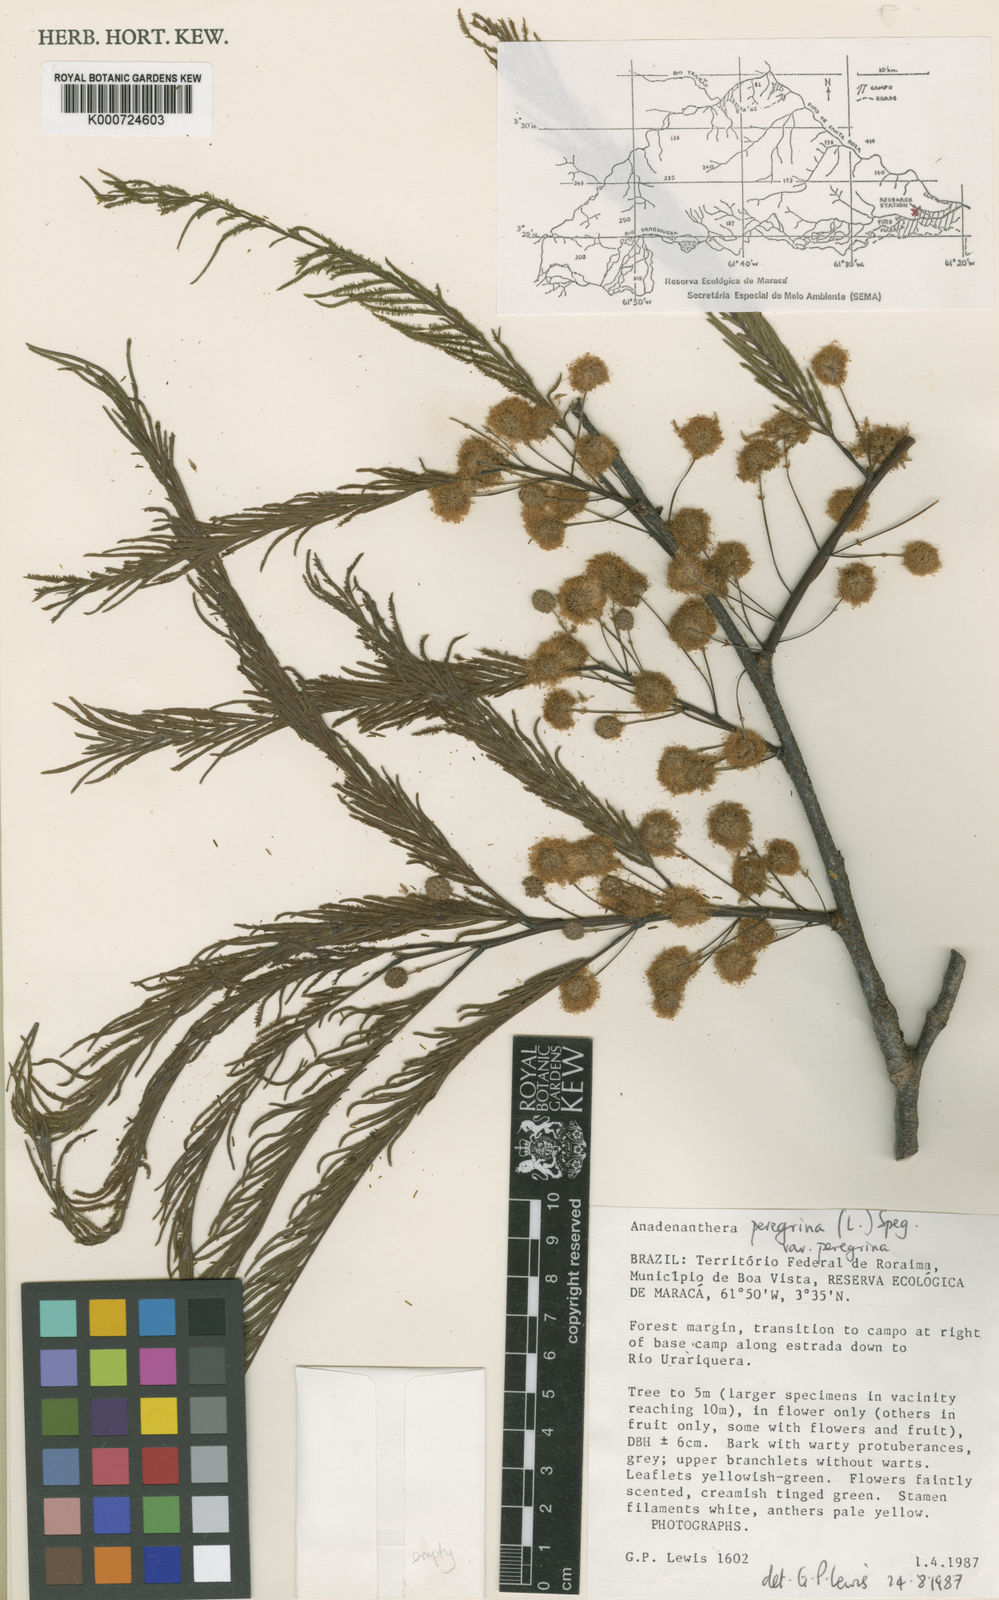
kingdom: Plantae
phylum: Tracheophyta
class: Magnoliopsida
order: Fabales
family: Fabaceae
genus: Anadenanthera
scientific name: Anadenanthera peregrina
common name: Cohoba
